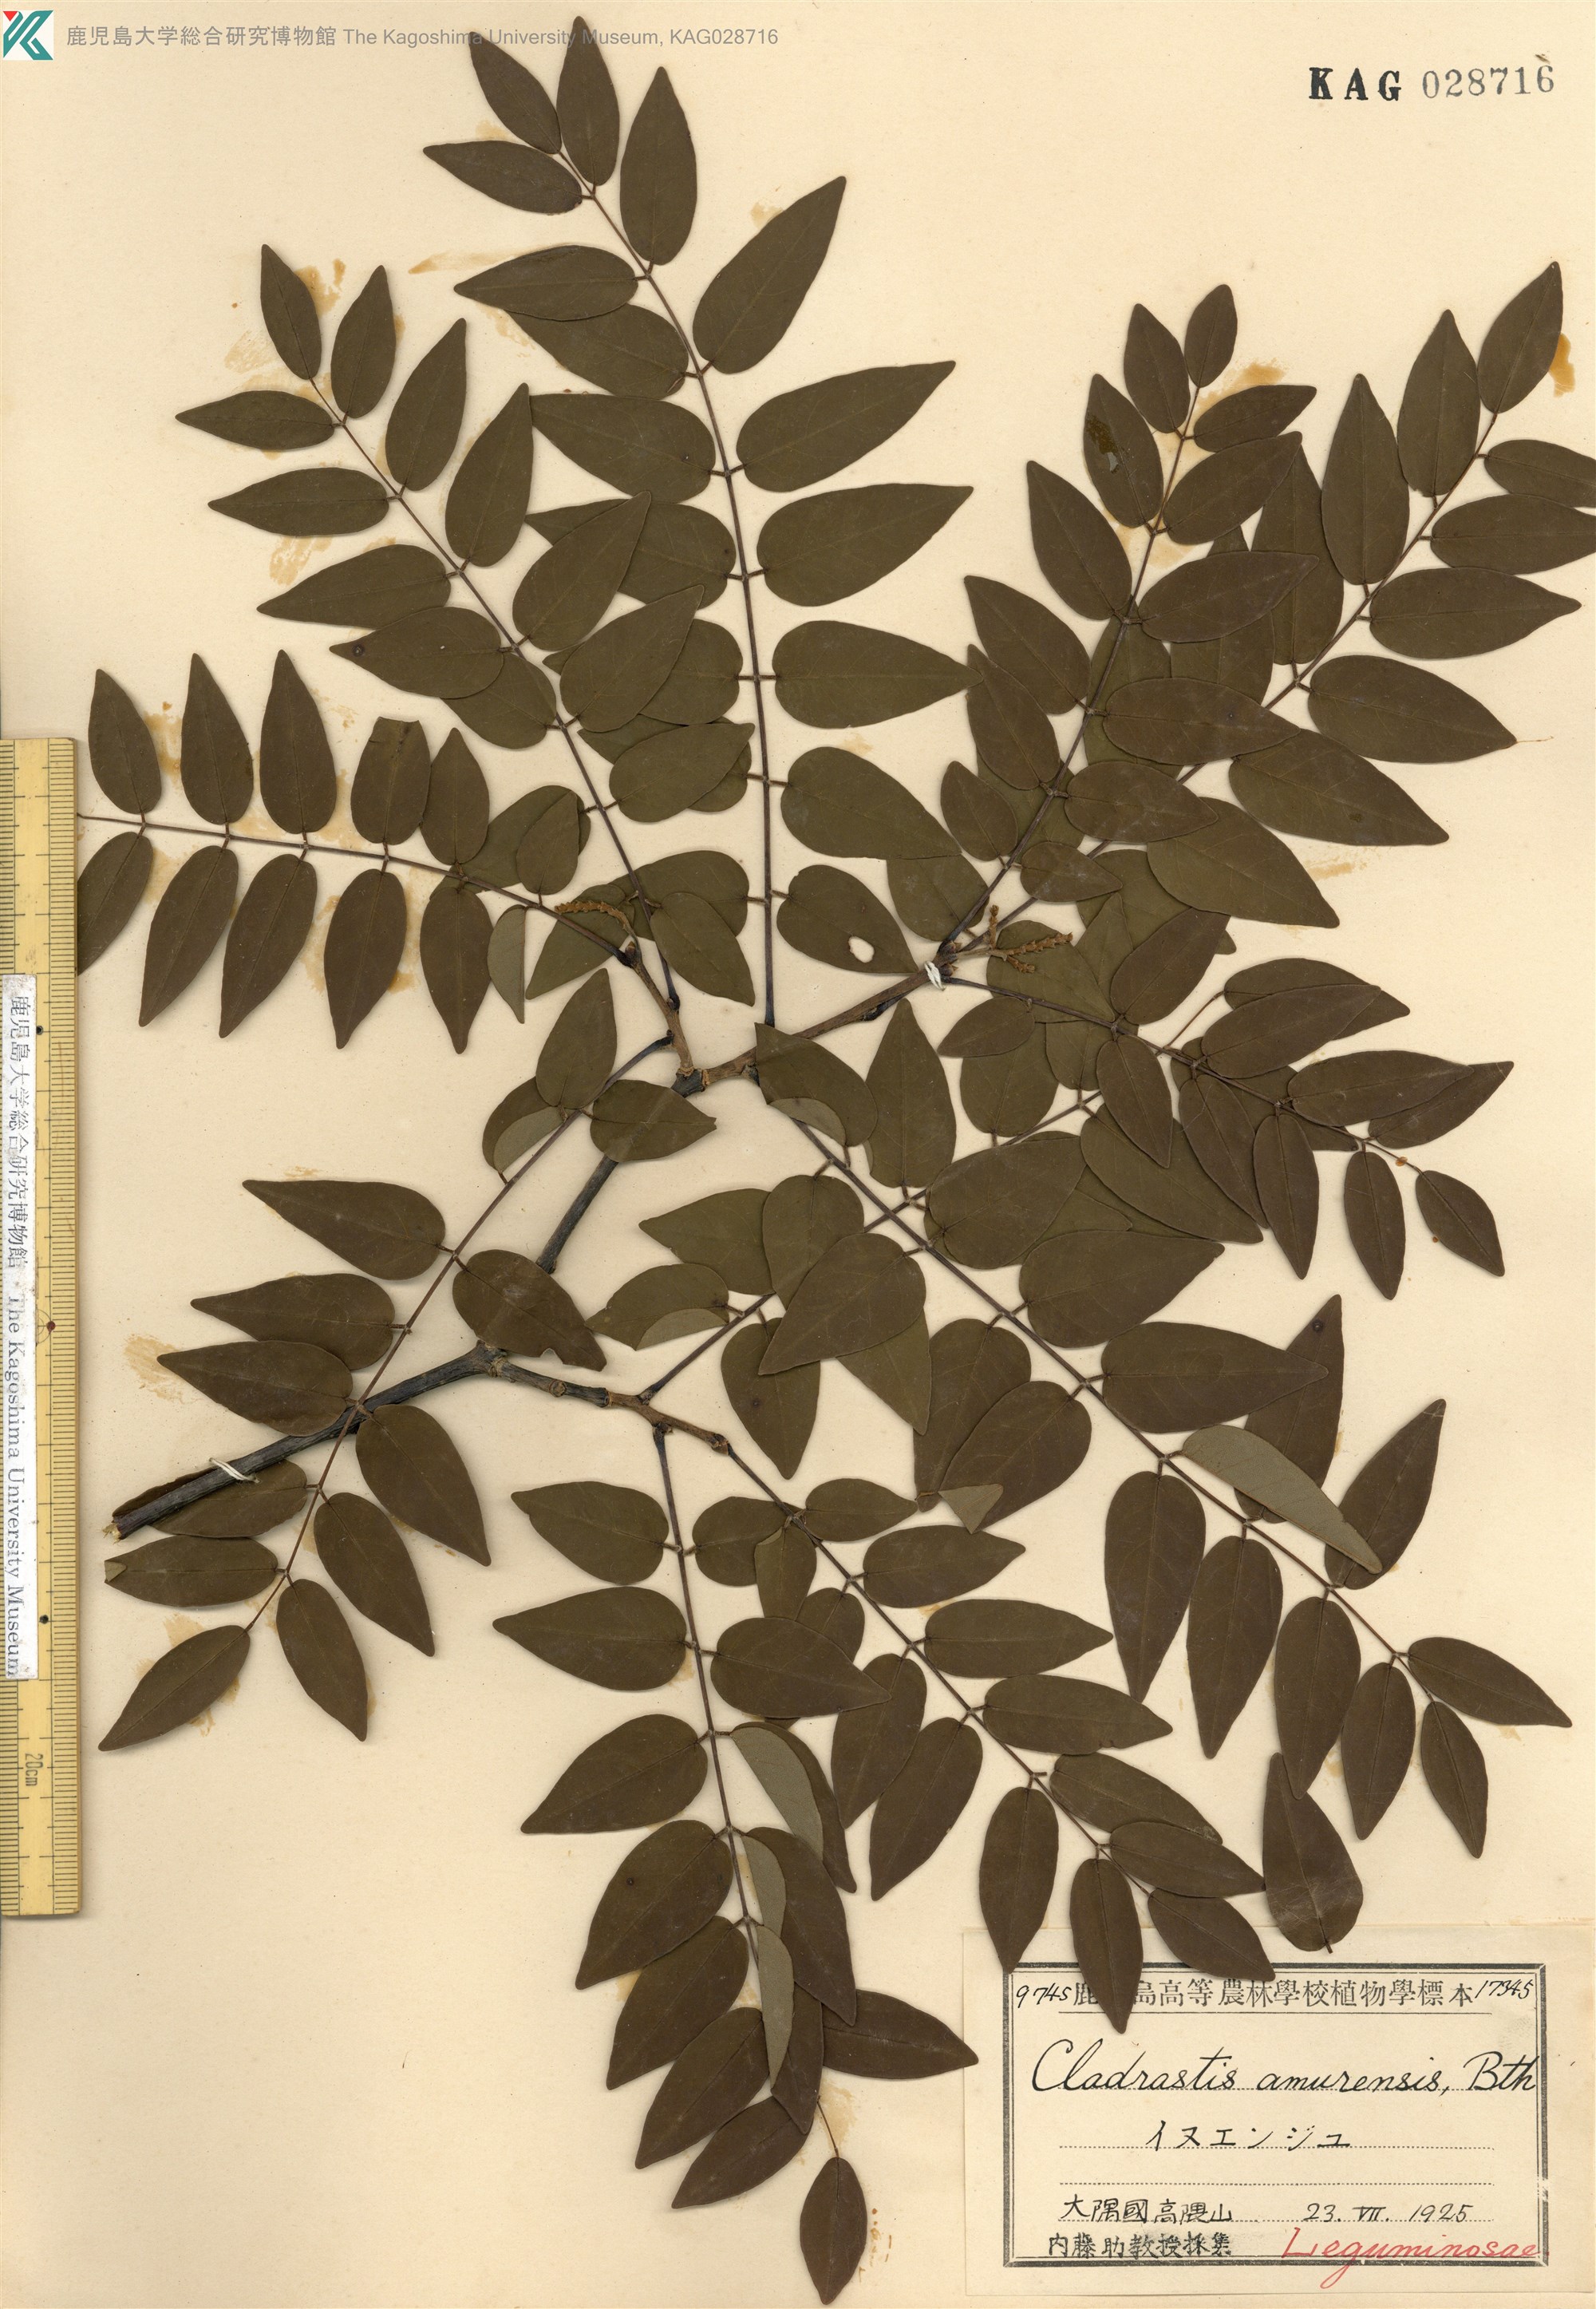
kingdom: Plantae
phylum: Tracheophyta
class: Magnoliopsida
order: Fabales
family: Fabaceae
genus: Maackia
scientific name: Maackia amurensis
